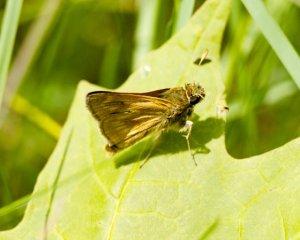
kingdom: Animalia
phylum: Arthropoda
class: Insecta
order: Lepidoptera
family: Hesperiidae
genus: Polites
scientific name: Polites
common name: Long Dash Skipper
